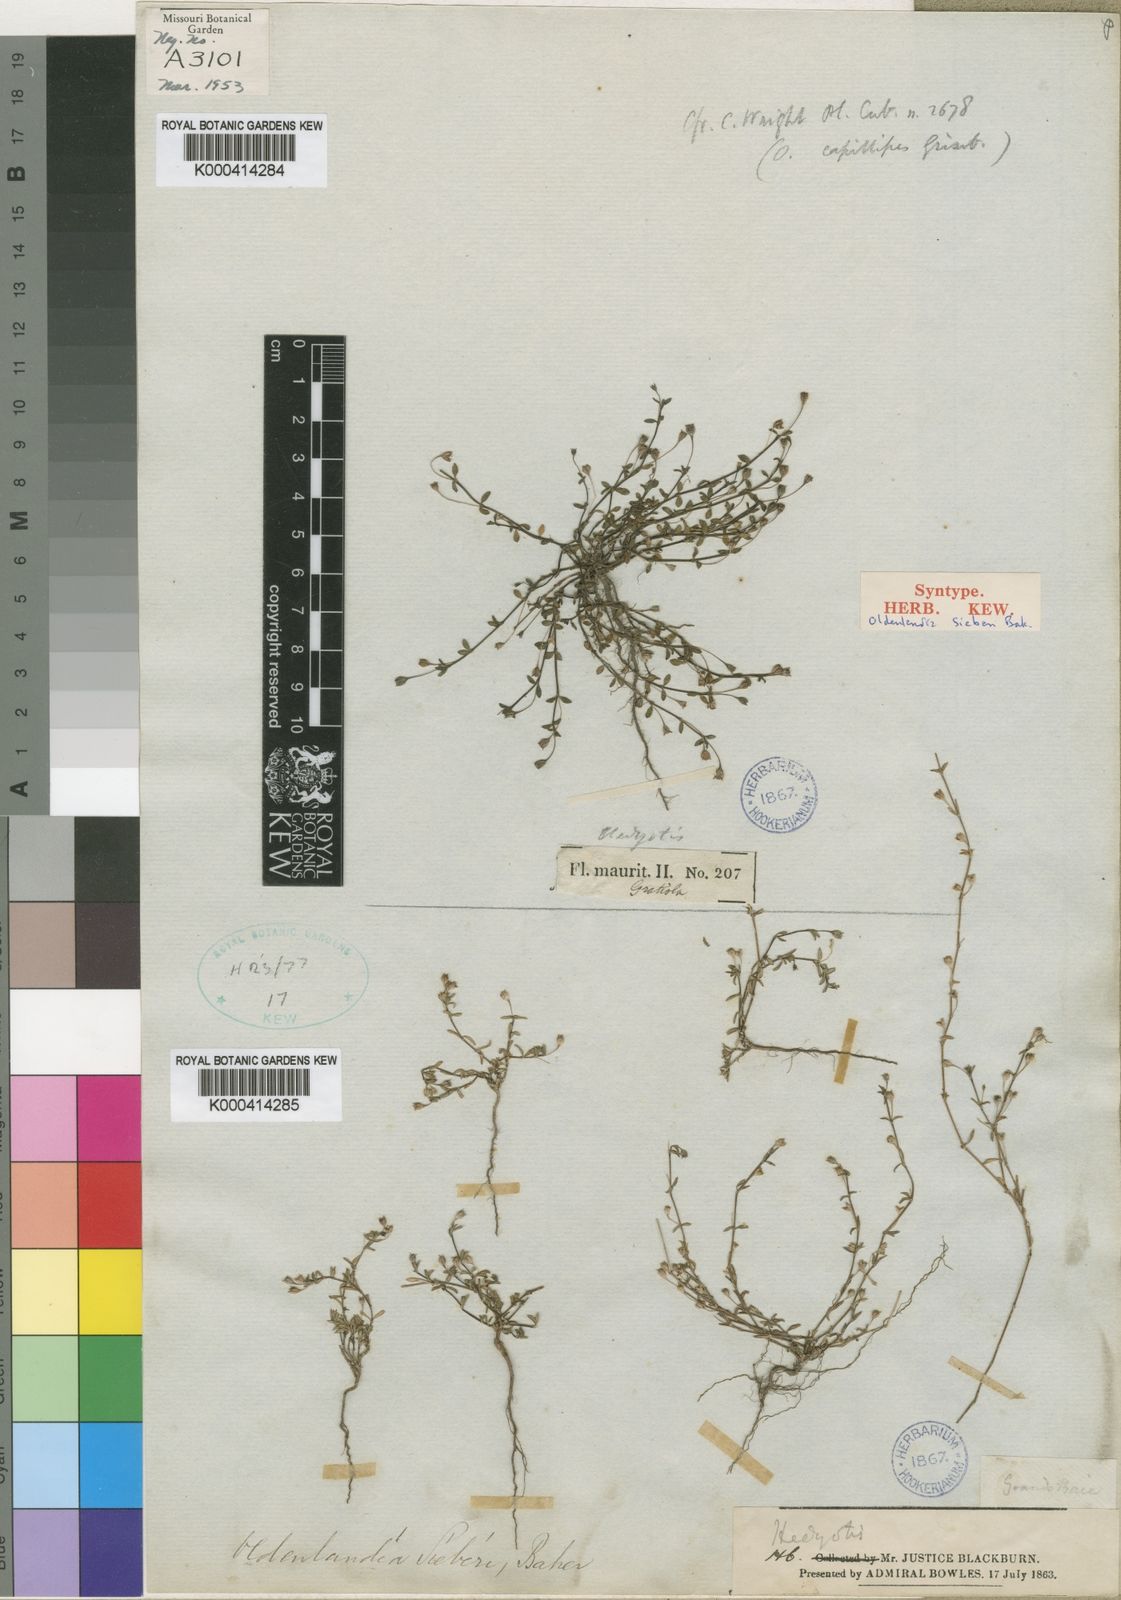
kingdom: Plantae
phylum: Tracheophyta
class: Magnoliopsida
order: Gentianales
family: Rubiaceae
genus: Oldenlandia
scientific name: Oldenlandia sieberi
